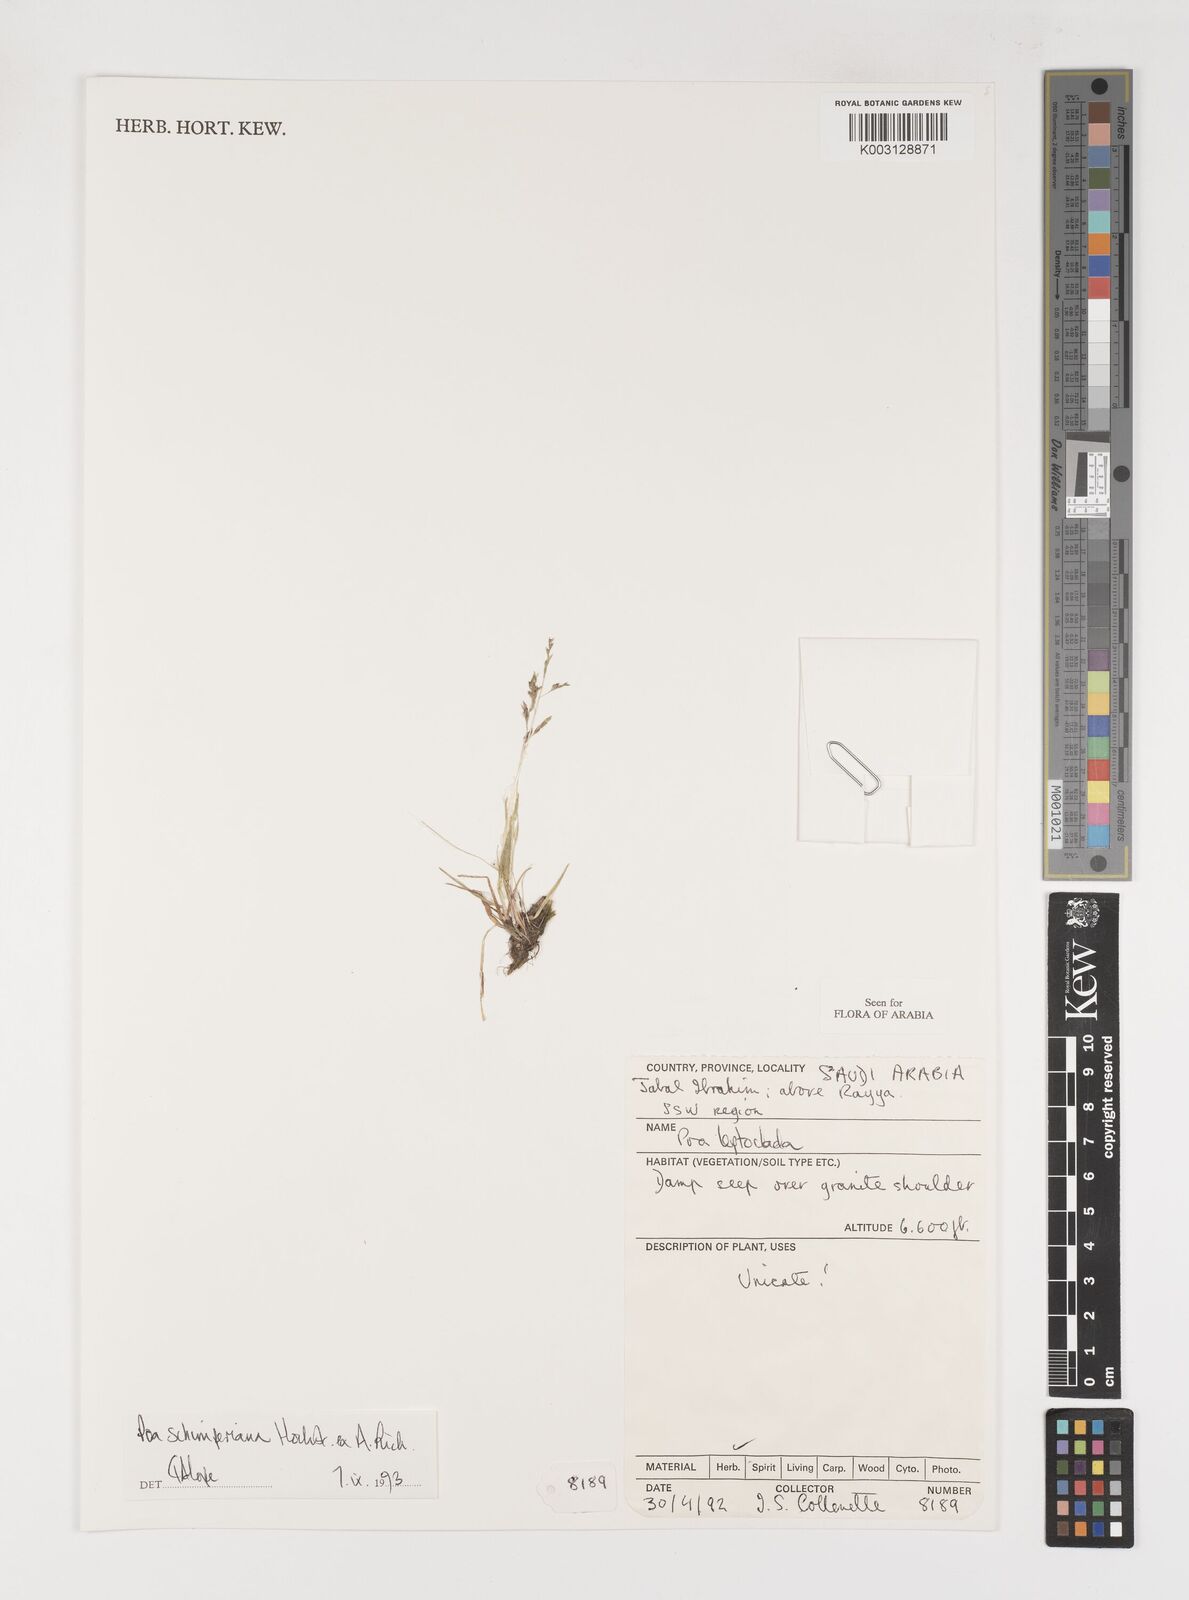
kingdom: Plantae
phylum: Tracheophyta
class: Liliopsida
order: Poales
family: Poaceae
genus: Poa
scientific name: Poa schimperiana
